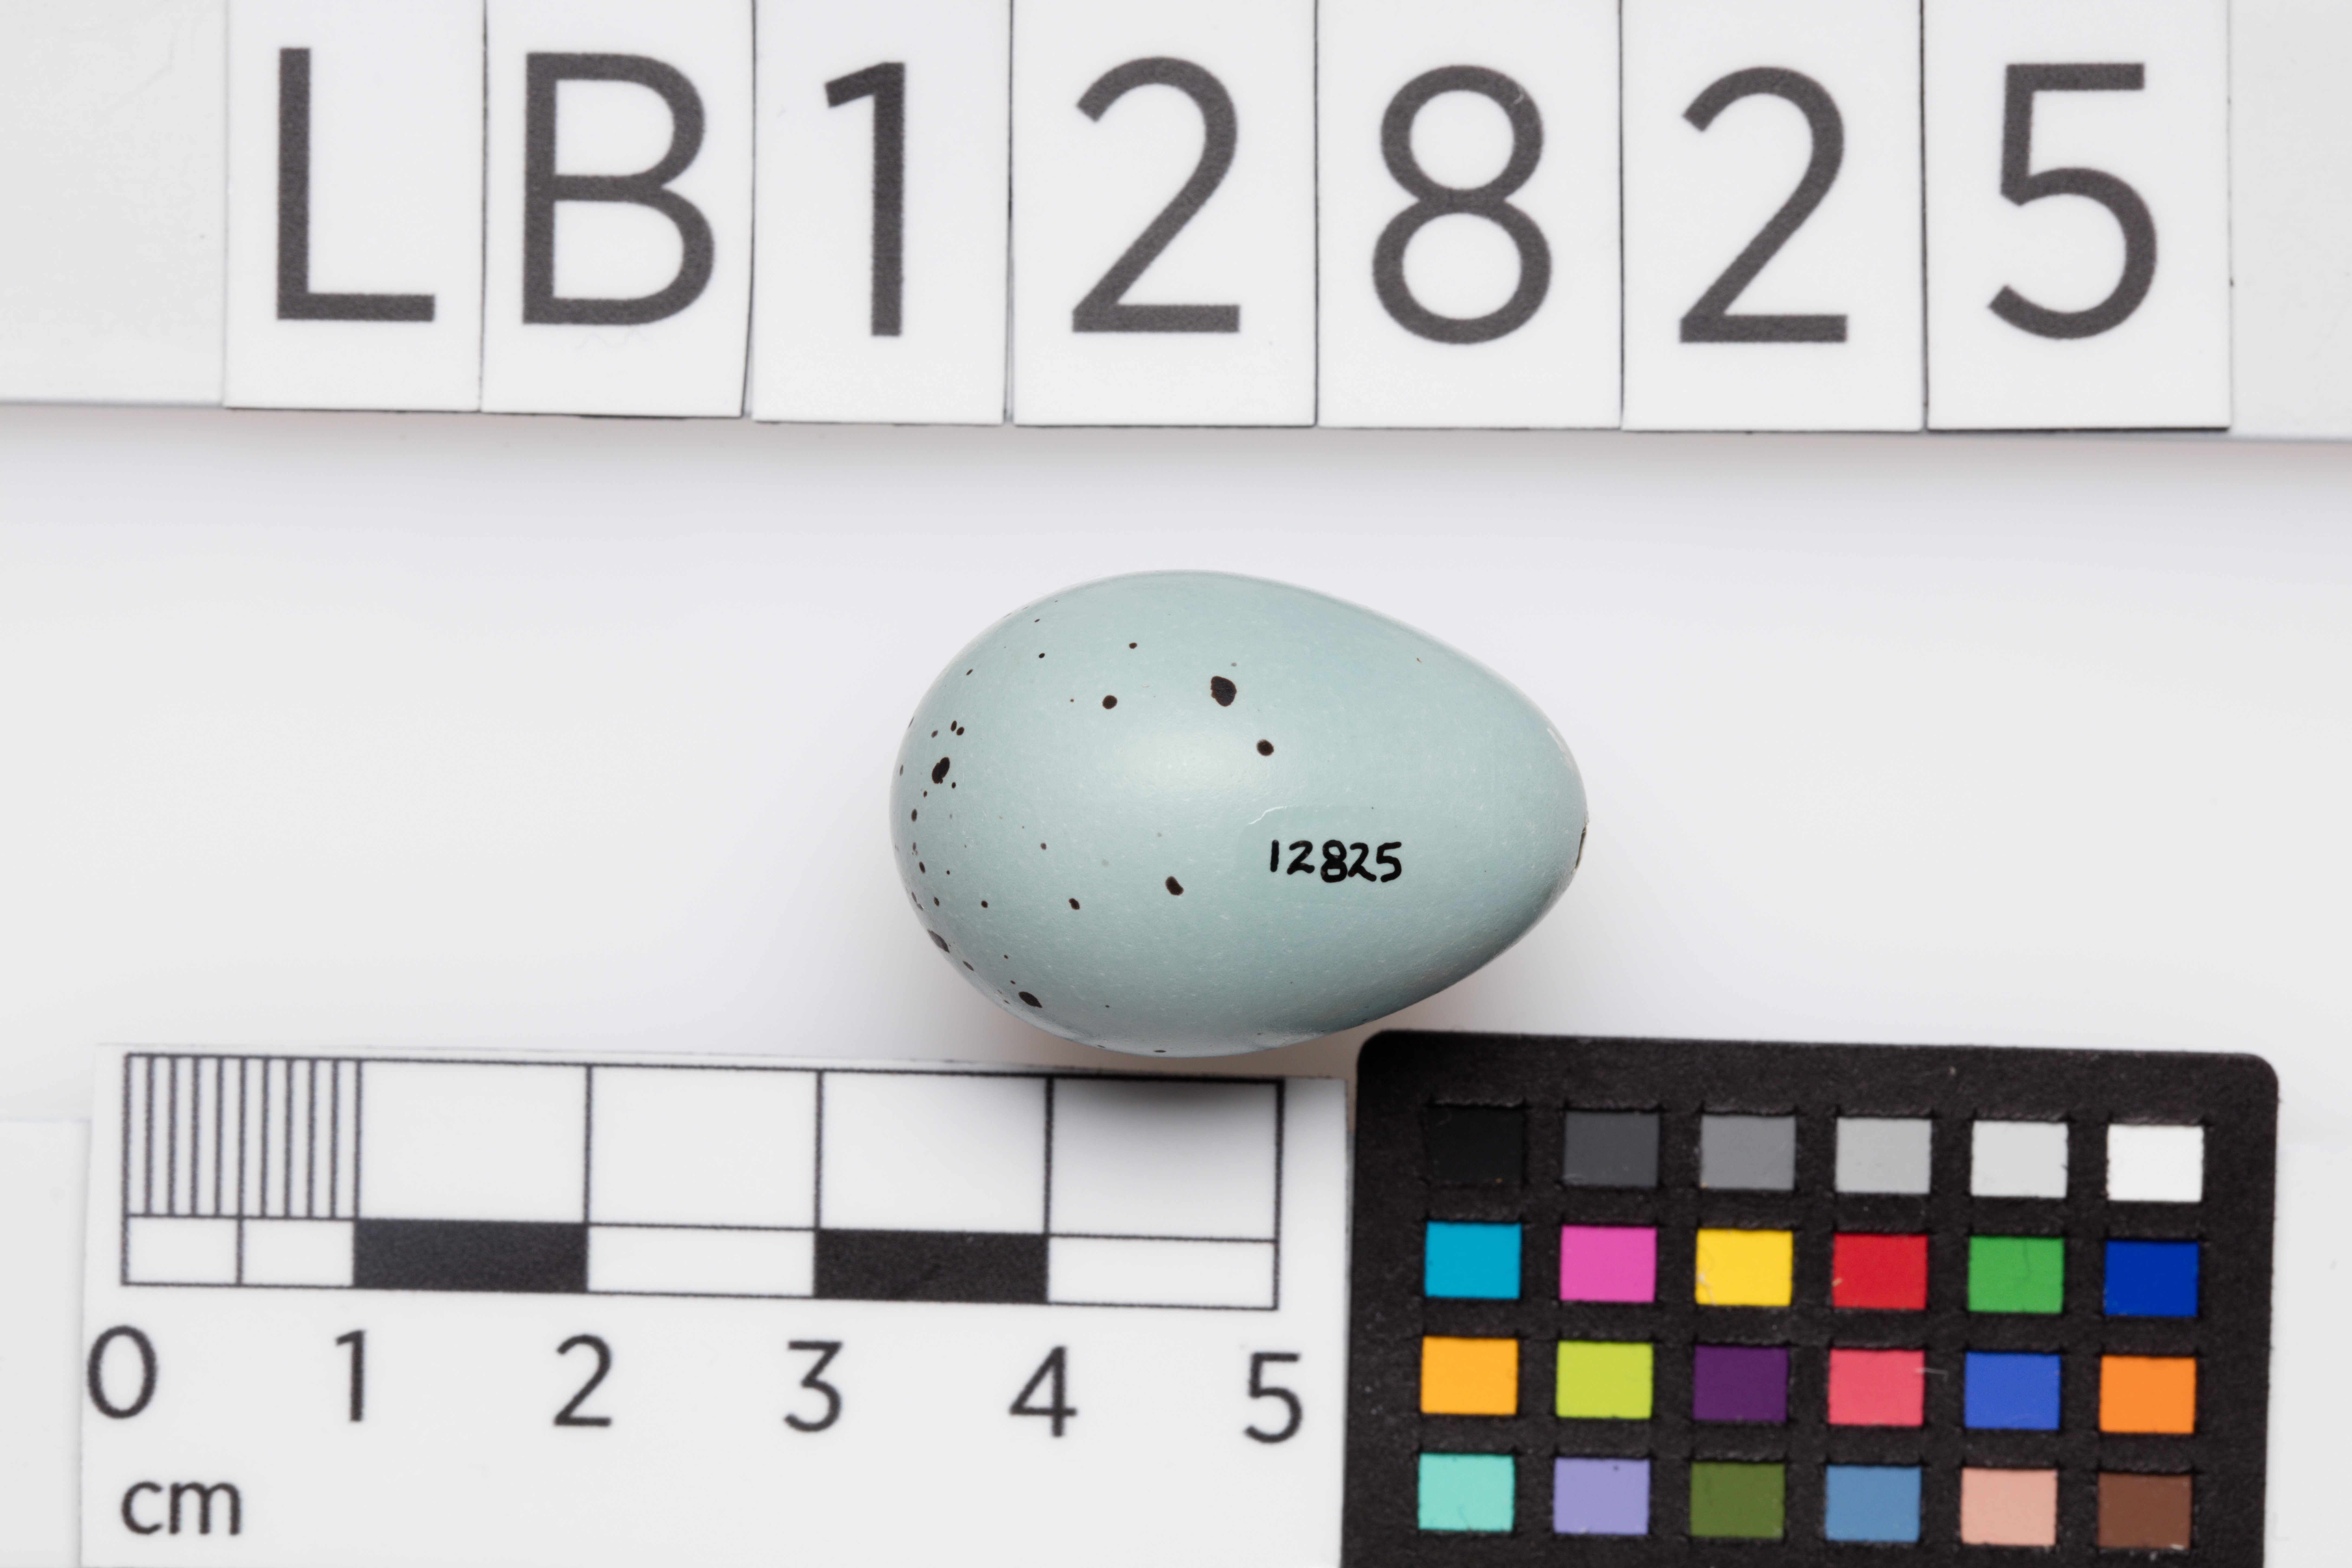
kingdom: Animalia
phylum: Chordata
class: Aves
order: Passeriformes
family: Turdidae
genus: Turdus
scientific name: Turdus philomelos
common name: Song thrush
